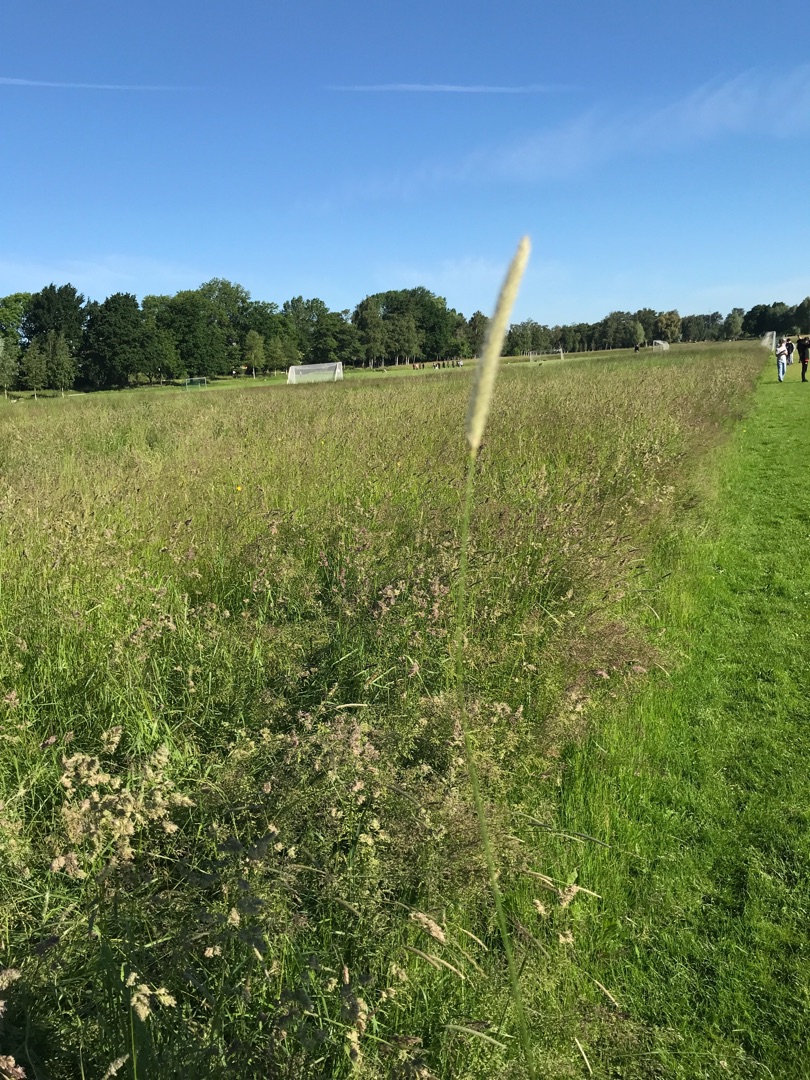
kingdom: Plantae
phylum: Tracheophyta
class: Liliopsida
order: Poales
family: Poaceae
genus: Alopecurus
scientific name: Alopecurus pratensis
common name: Eng-rævehale
